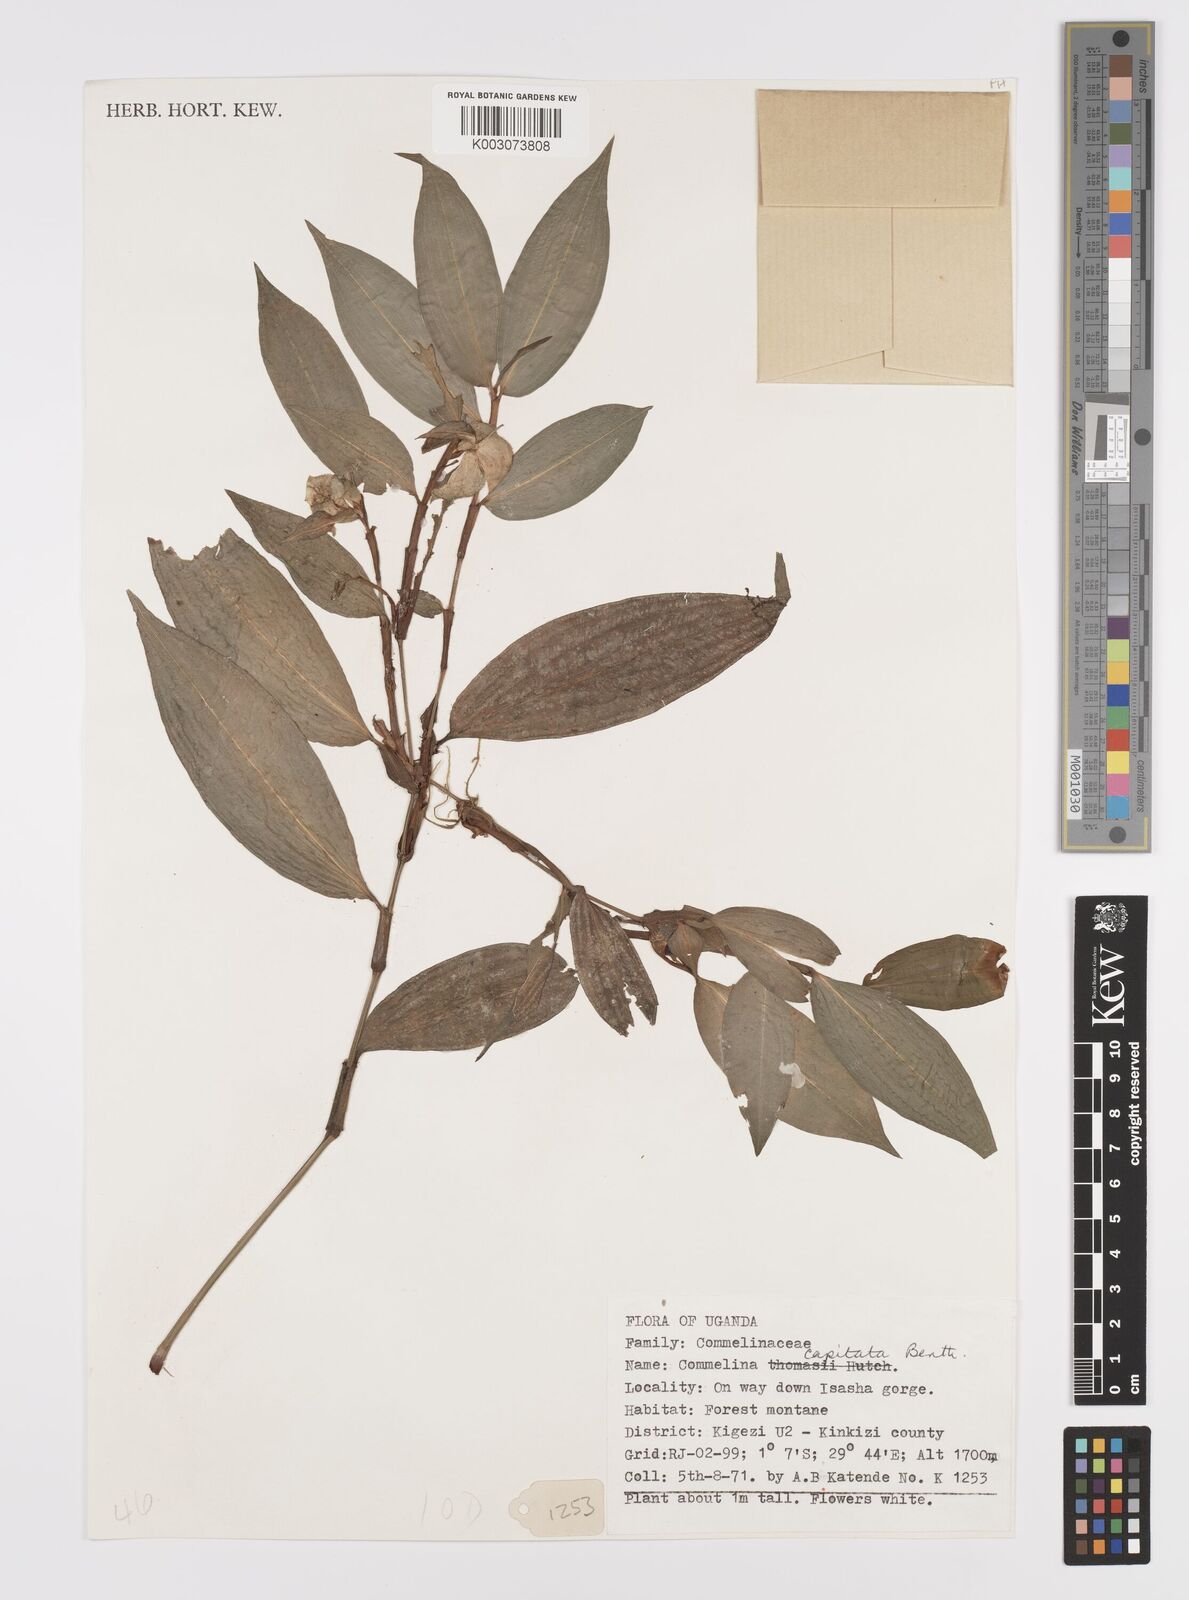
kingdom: Plantae
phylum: Tracheophyta
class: Liliopsida
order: Commelinales
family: Commelinaceae
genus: Commelina
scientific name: Commelina capitata
